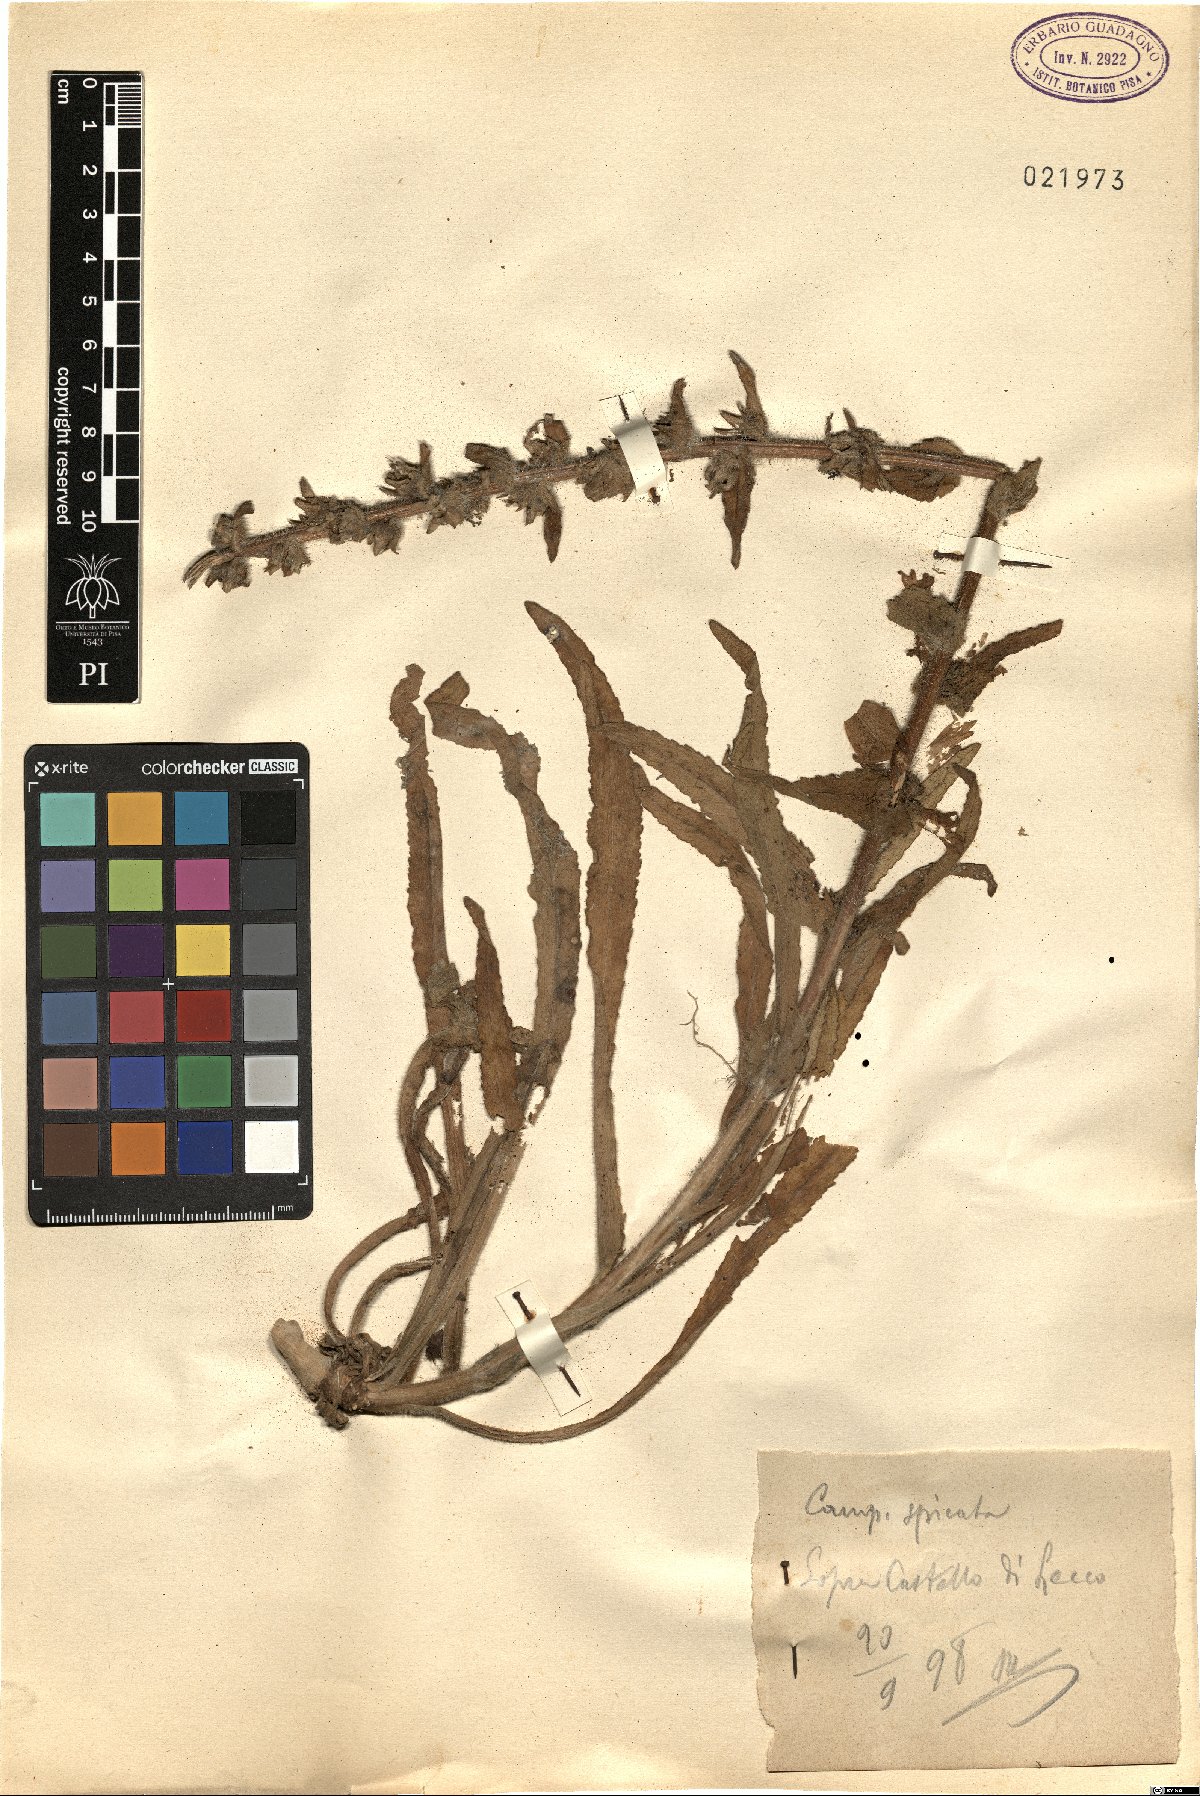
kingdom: Plantae
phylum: Tracheophyta
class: Magnoliopsida
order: Asterales
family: Campanulaceae
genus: Campanula
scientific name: Campanula spicata
